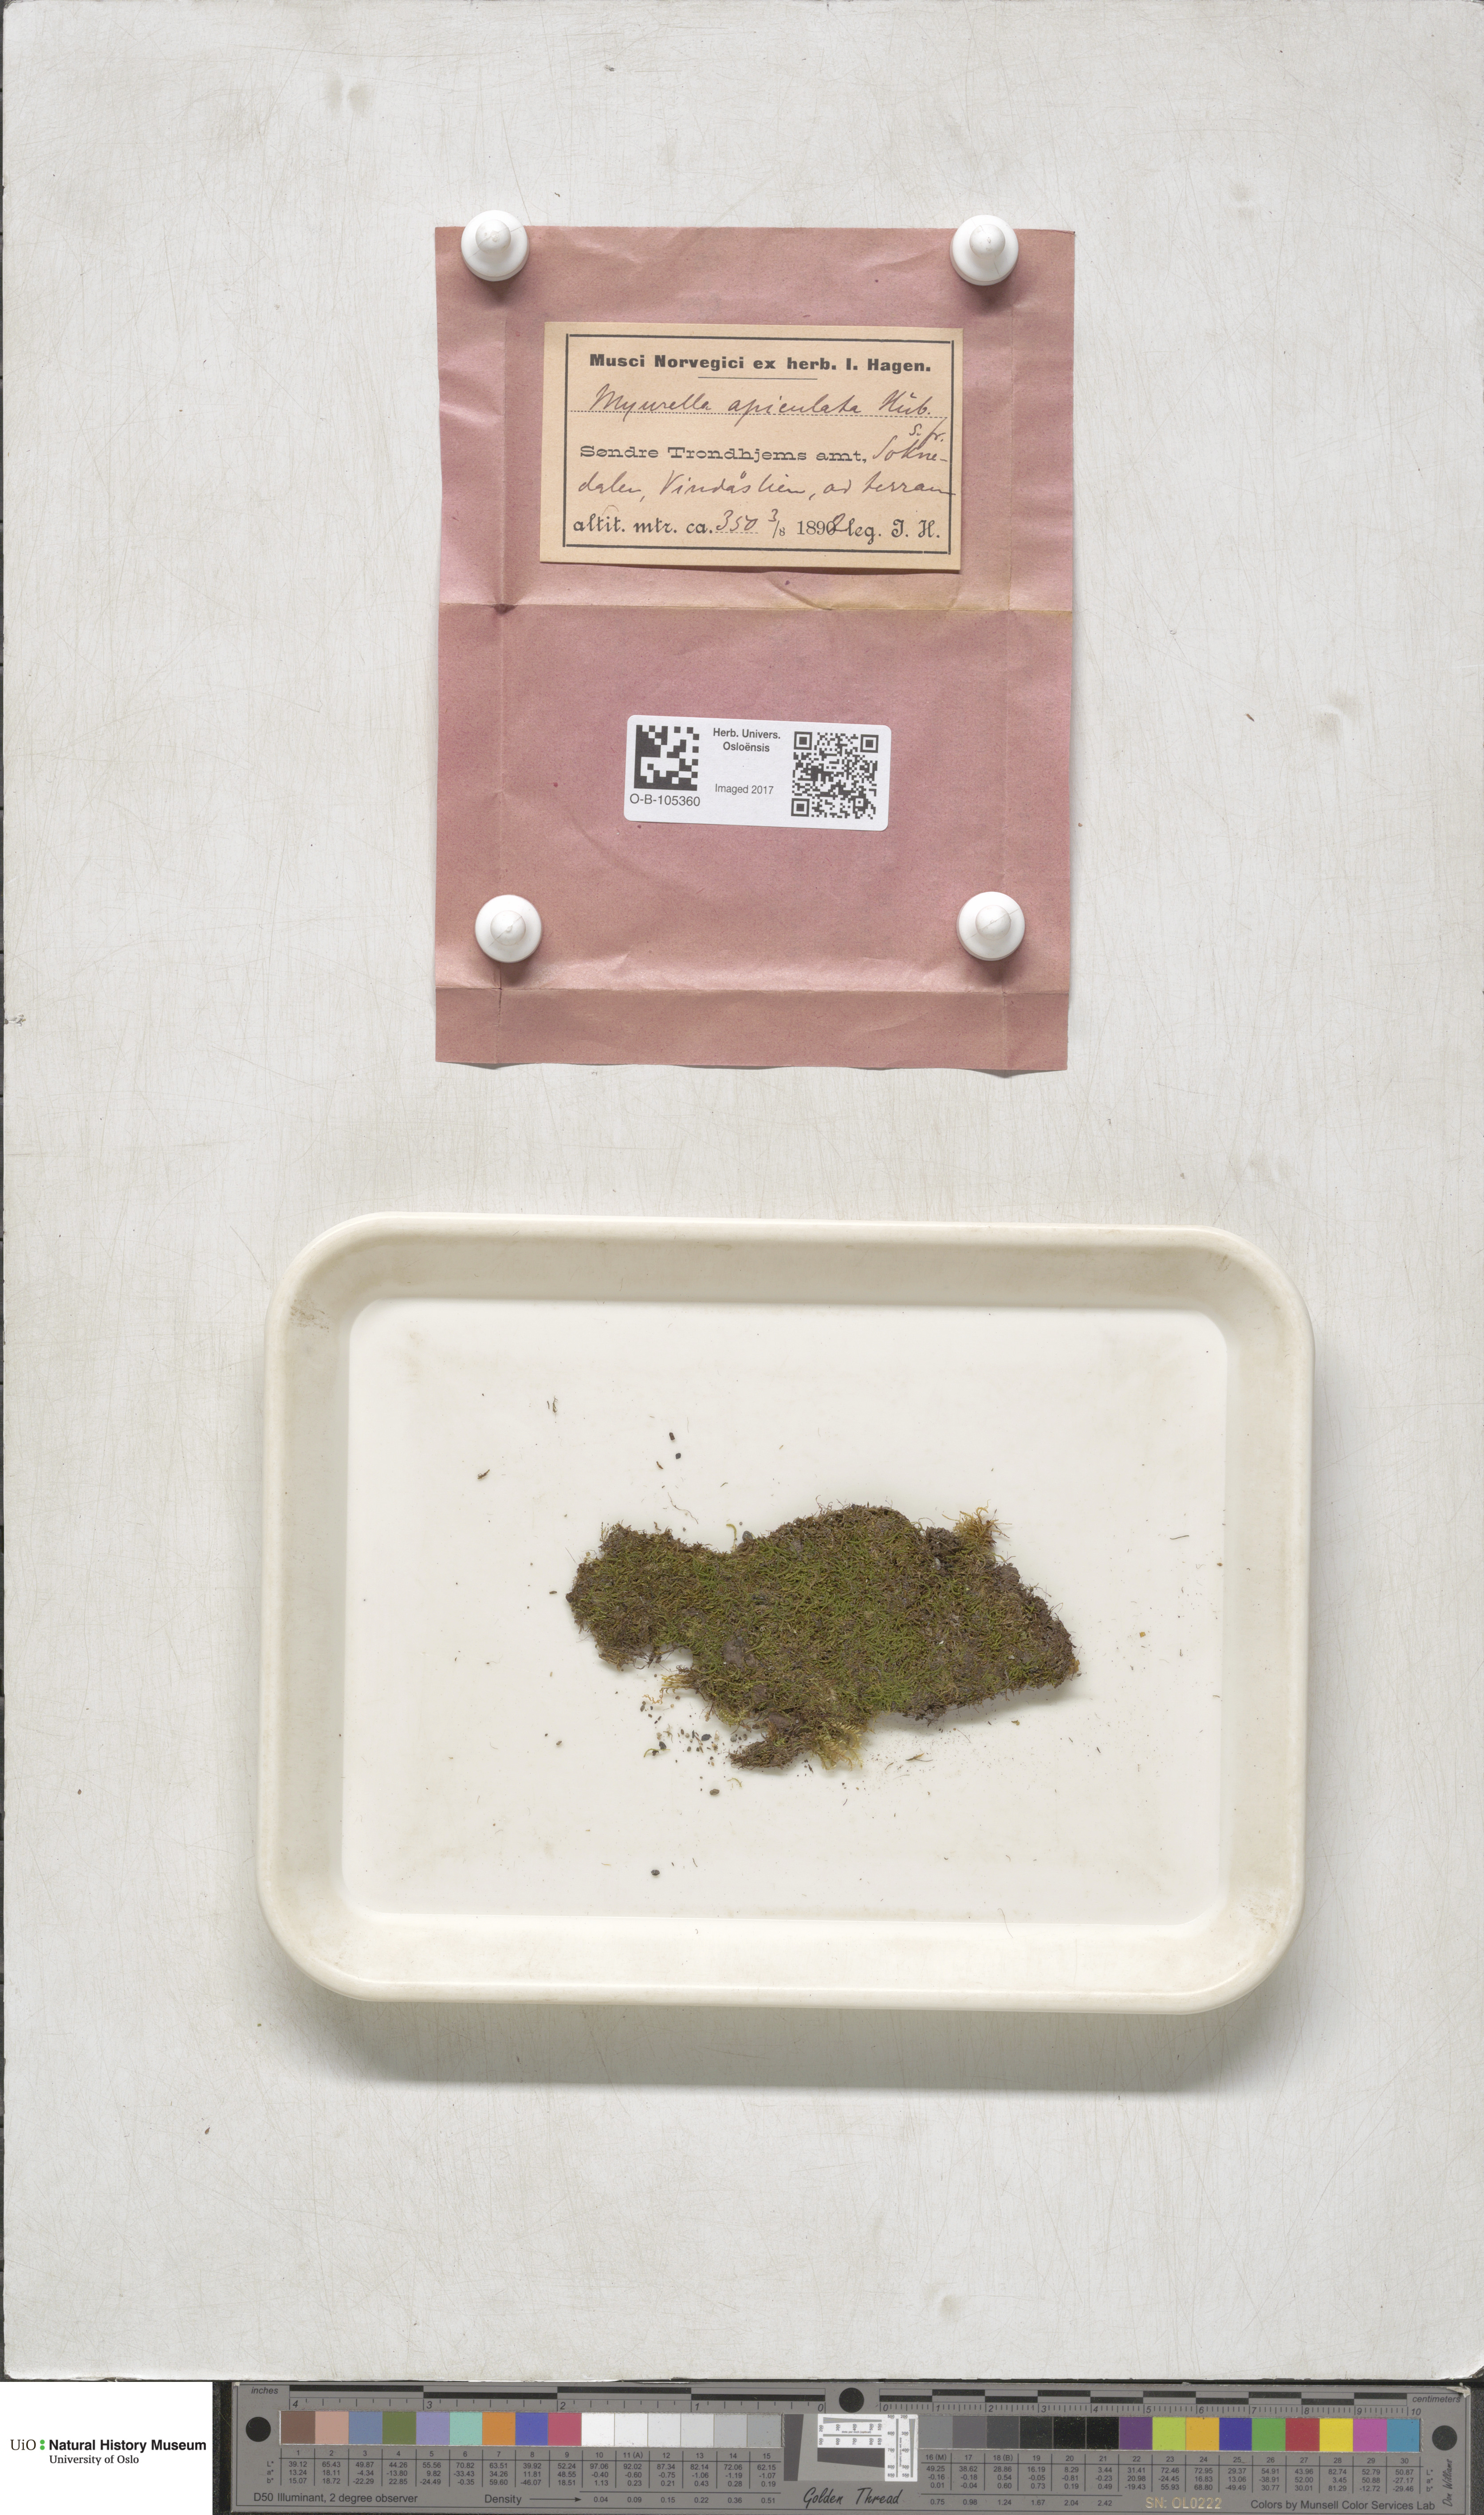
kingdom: Plantae
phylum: Bryophyta
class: Bryopsida
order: Hypnales
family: Plagiotheciaceae
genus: Myurella
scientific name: Myurella tenerrima
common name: Dwarf mousetail moss
